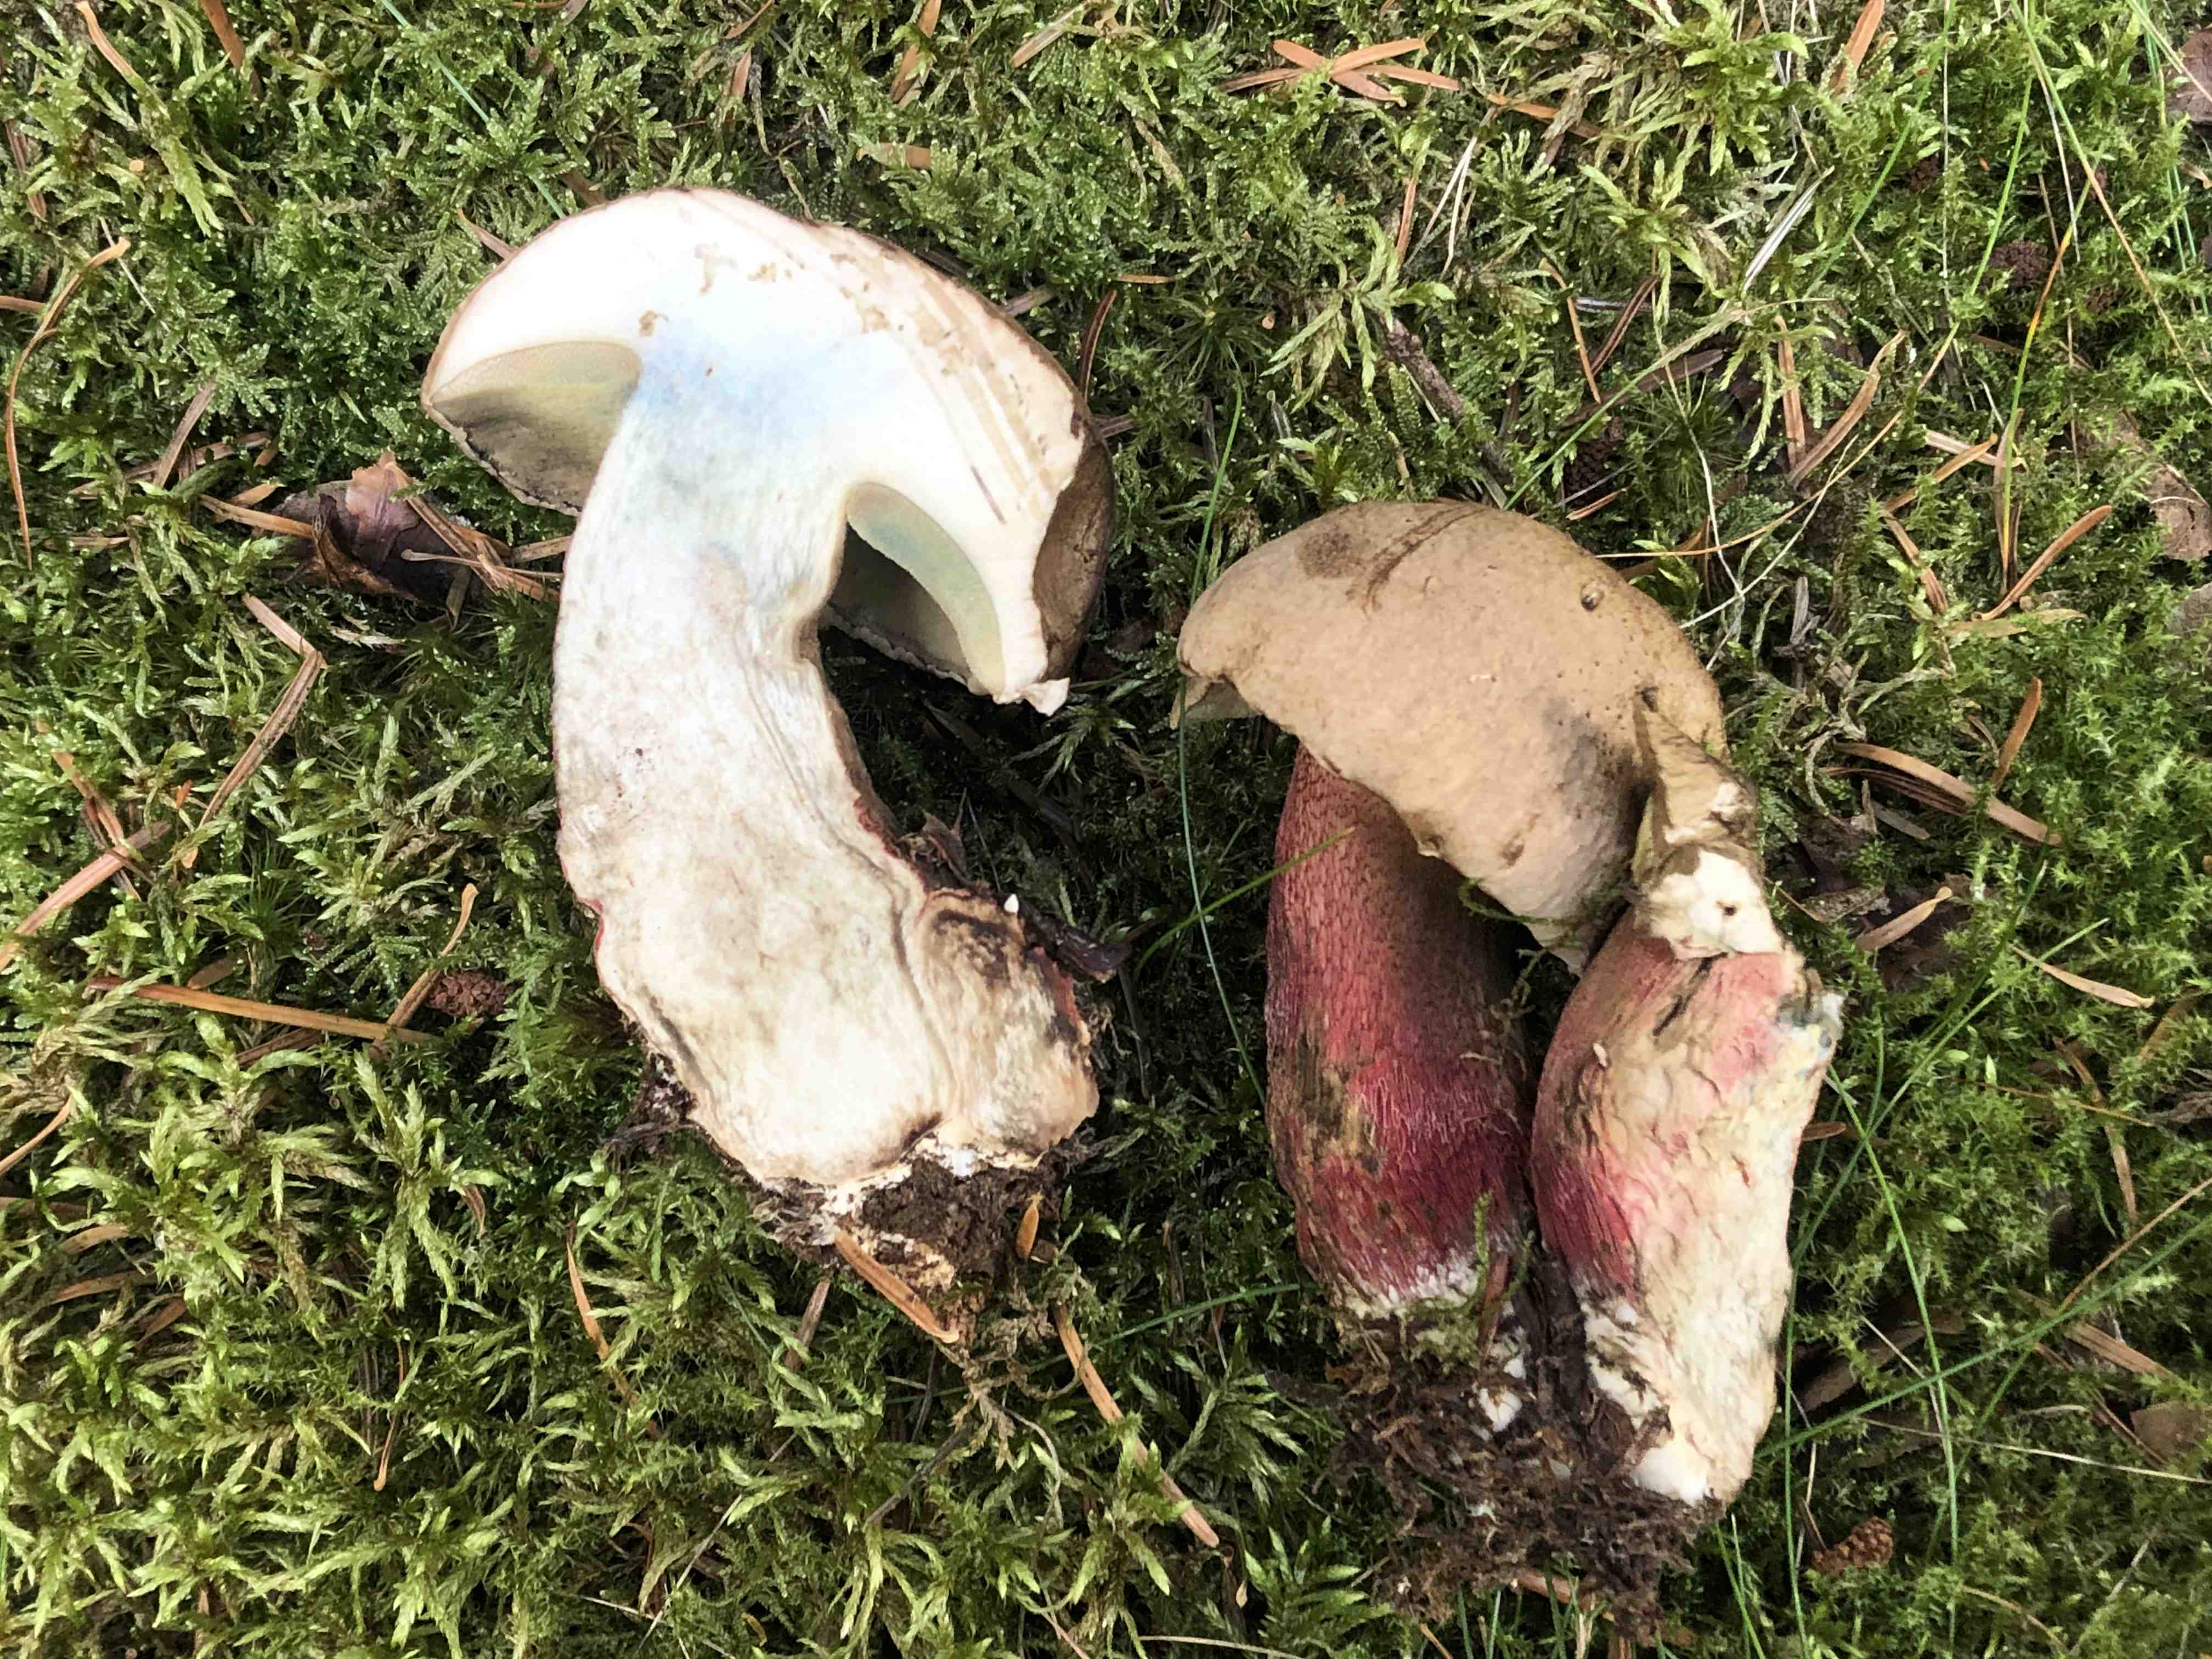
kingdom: Fungi
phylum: Basidiomycota
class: Agaricomycetes
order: Boletales
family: Boletaceae
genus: Caloboletus
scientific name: Caloboletus calopus
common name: skønfodet rørhat
